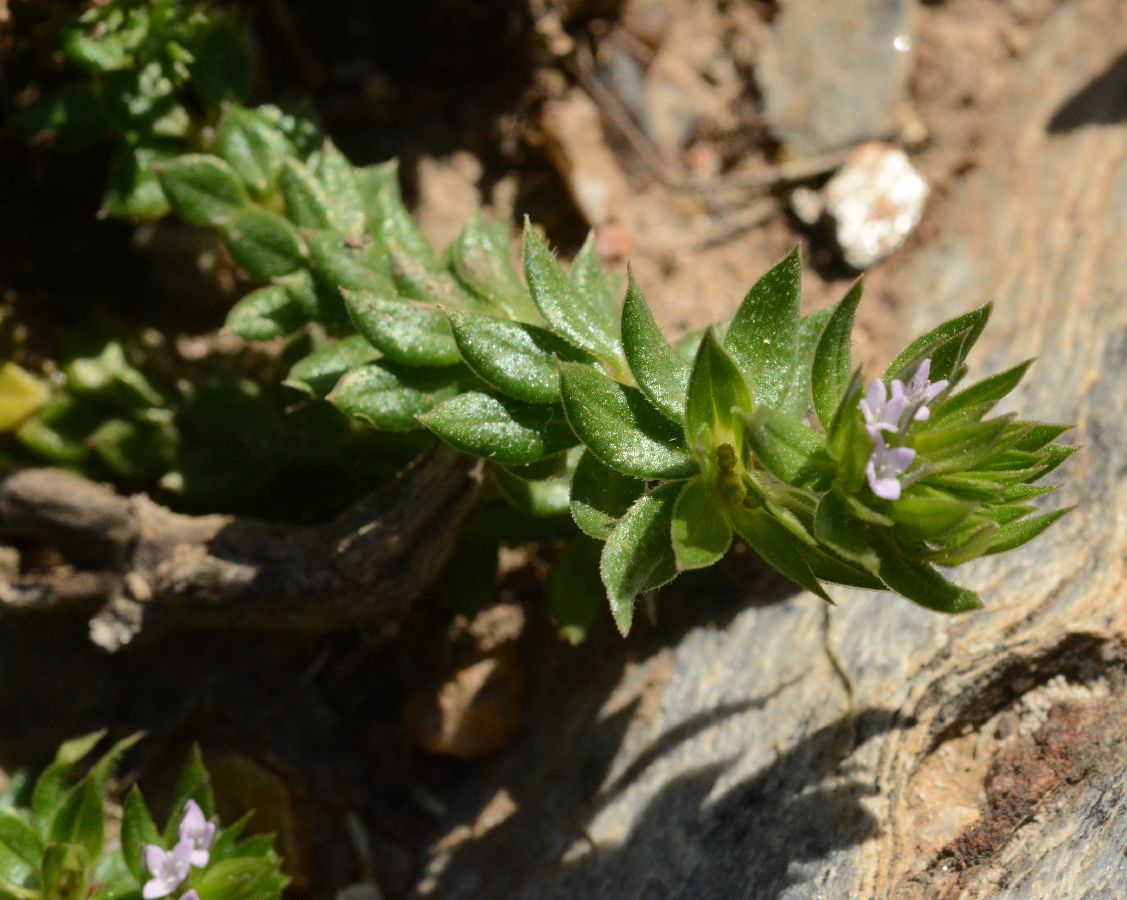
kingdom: Plantae
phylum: Tracheophyta
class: Magnoliopsida
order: Gentianales
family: Rubiaceae
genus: Asperula
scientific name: Asperula arvensis
